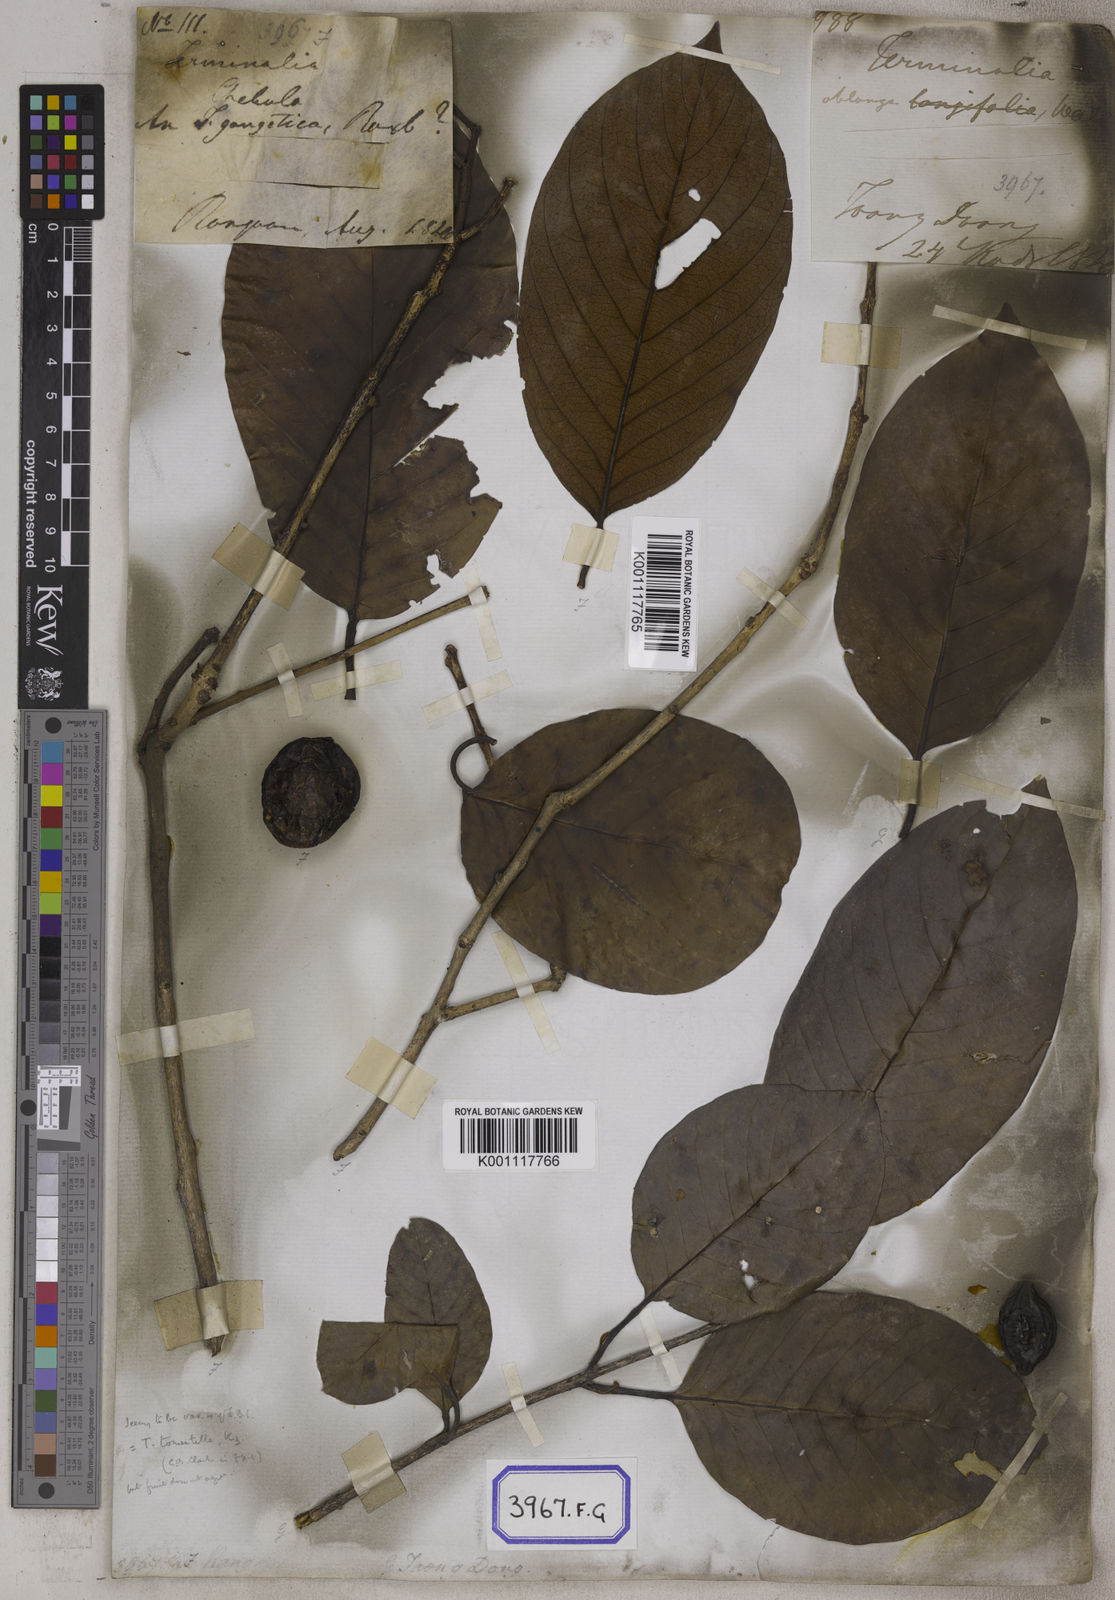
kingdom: Plantae
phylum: Tracheophyta
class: Magnoliopsida
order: Myrtales
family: Combretaceae
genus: Terminalia
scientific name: Terminalia chebula
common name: Myrobalan
